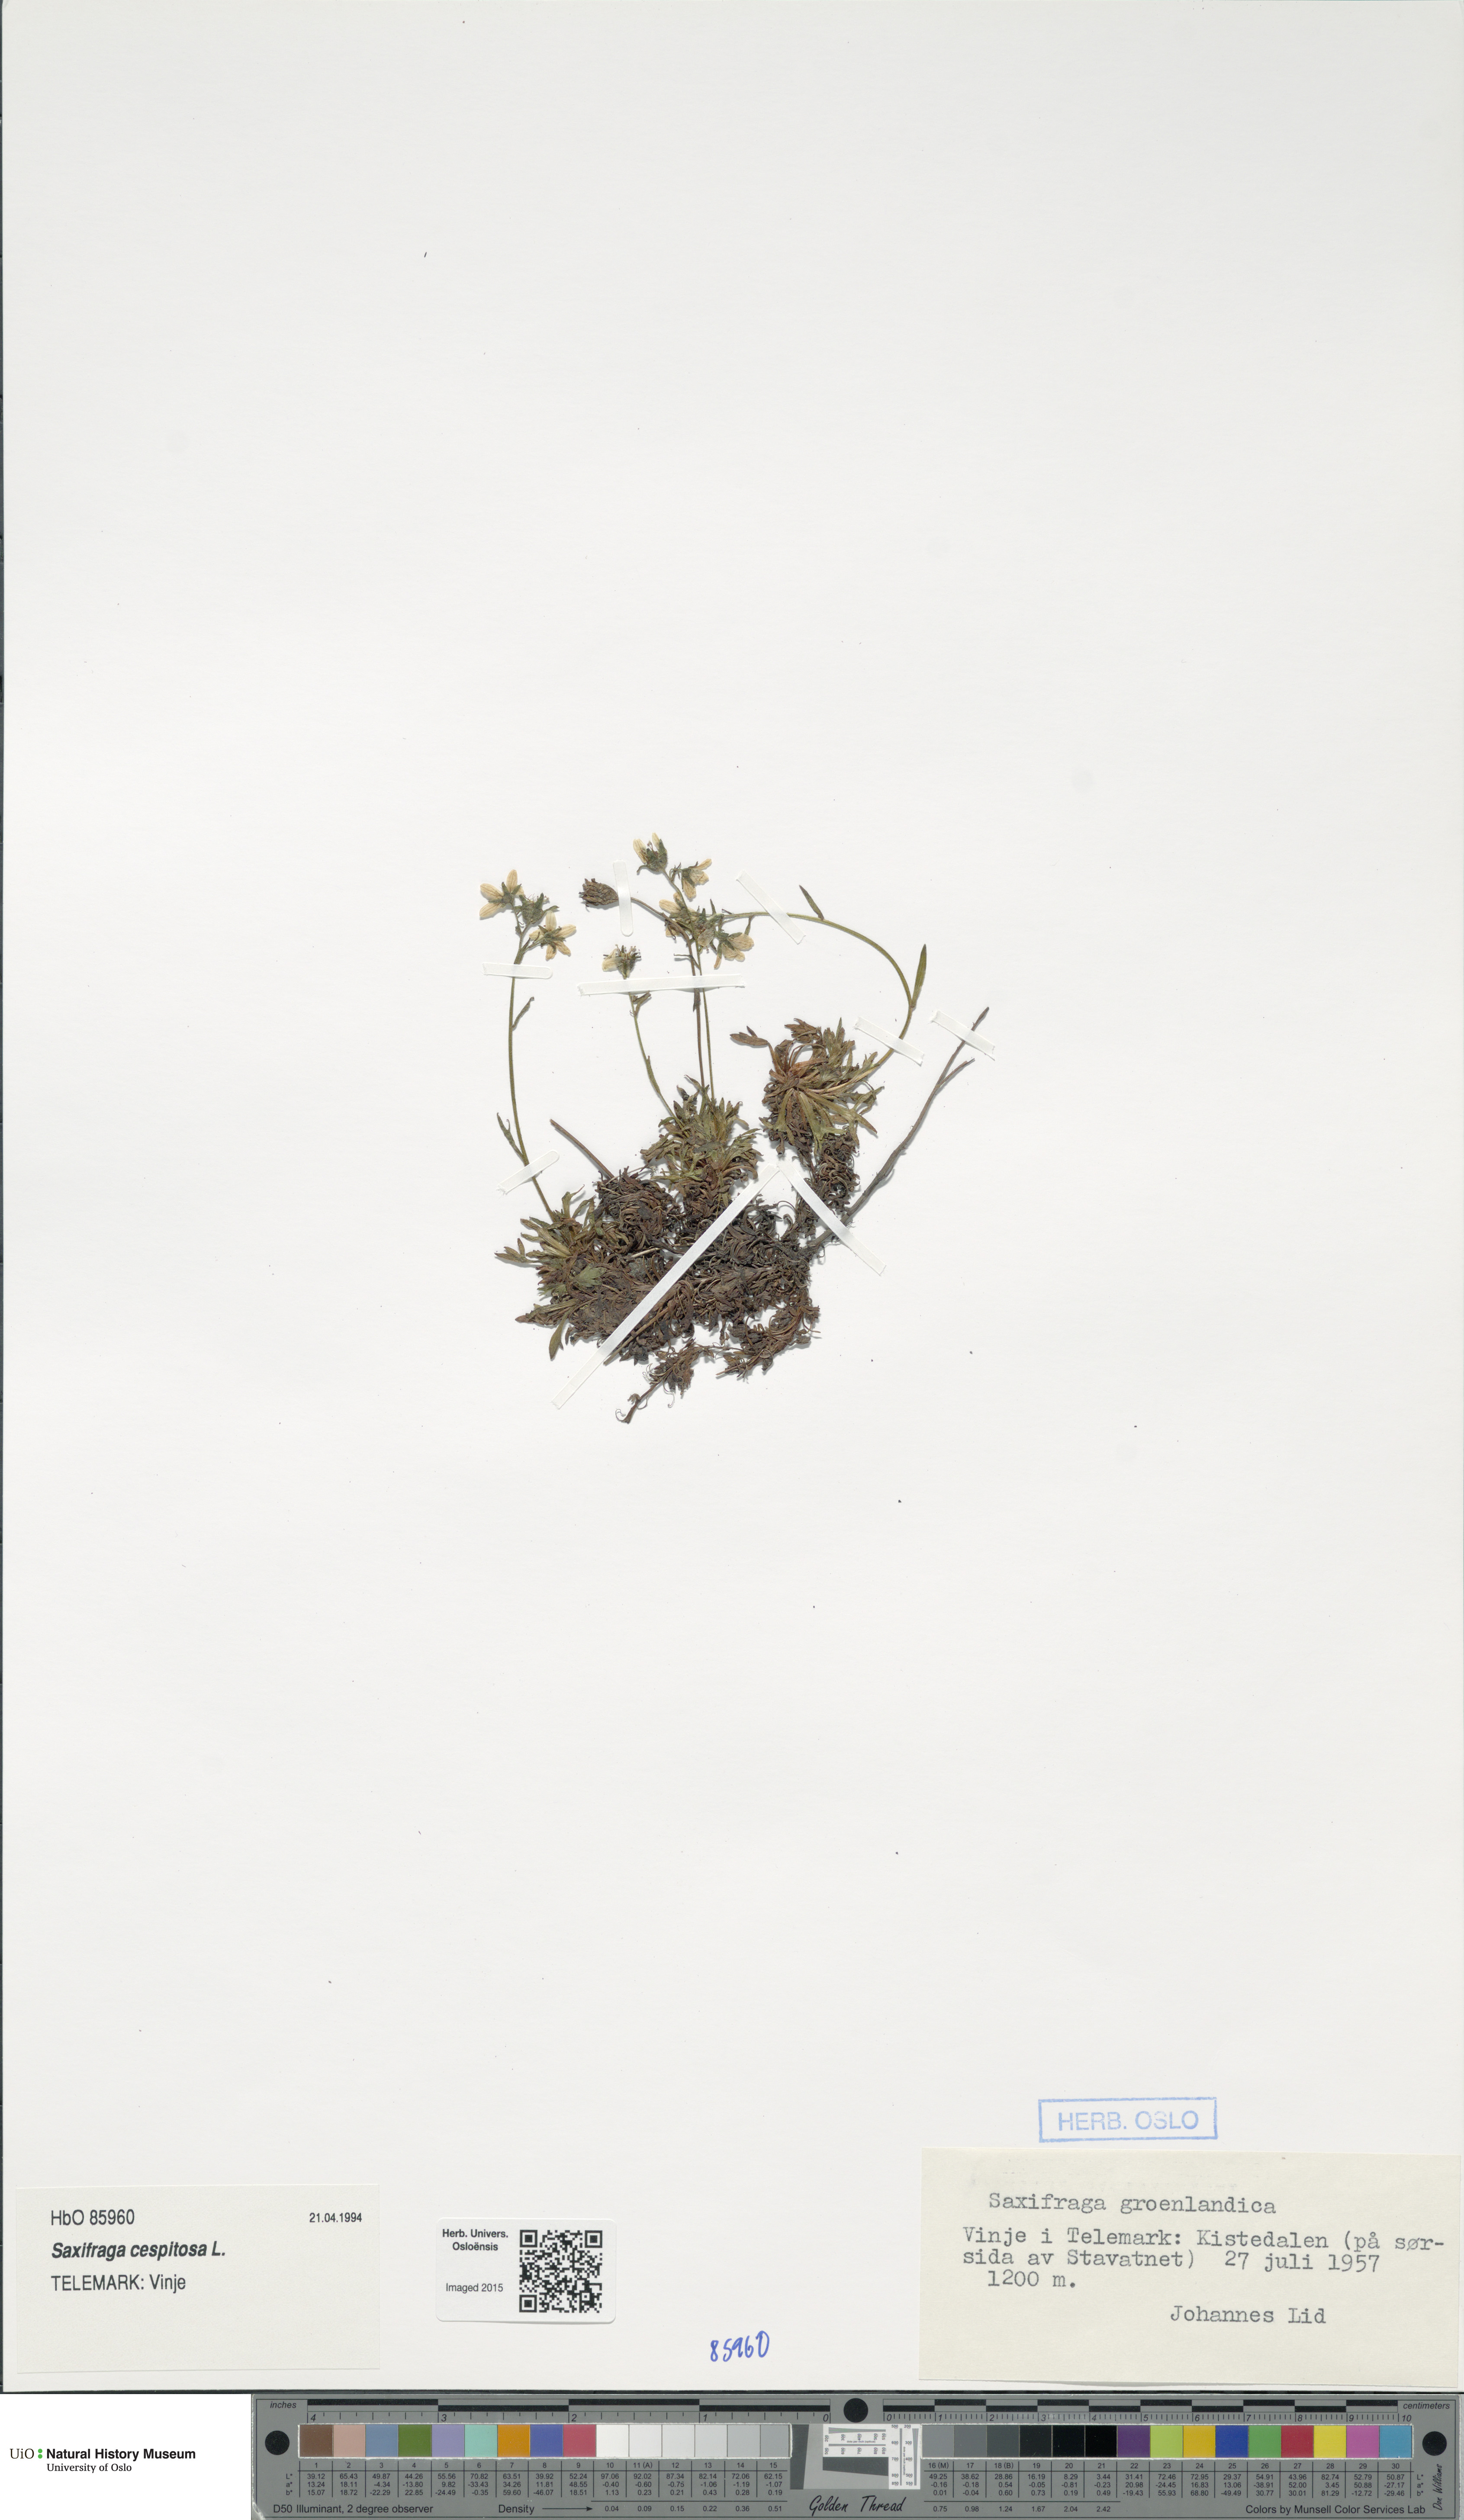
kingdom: Plantae
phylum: Tracheophyta
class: Magnoliopsida
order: Saxifragales
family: Saxifragaceae
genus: Saxifraga
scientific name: Saxifraga cespitosa
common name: Tufted saxifrage
